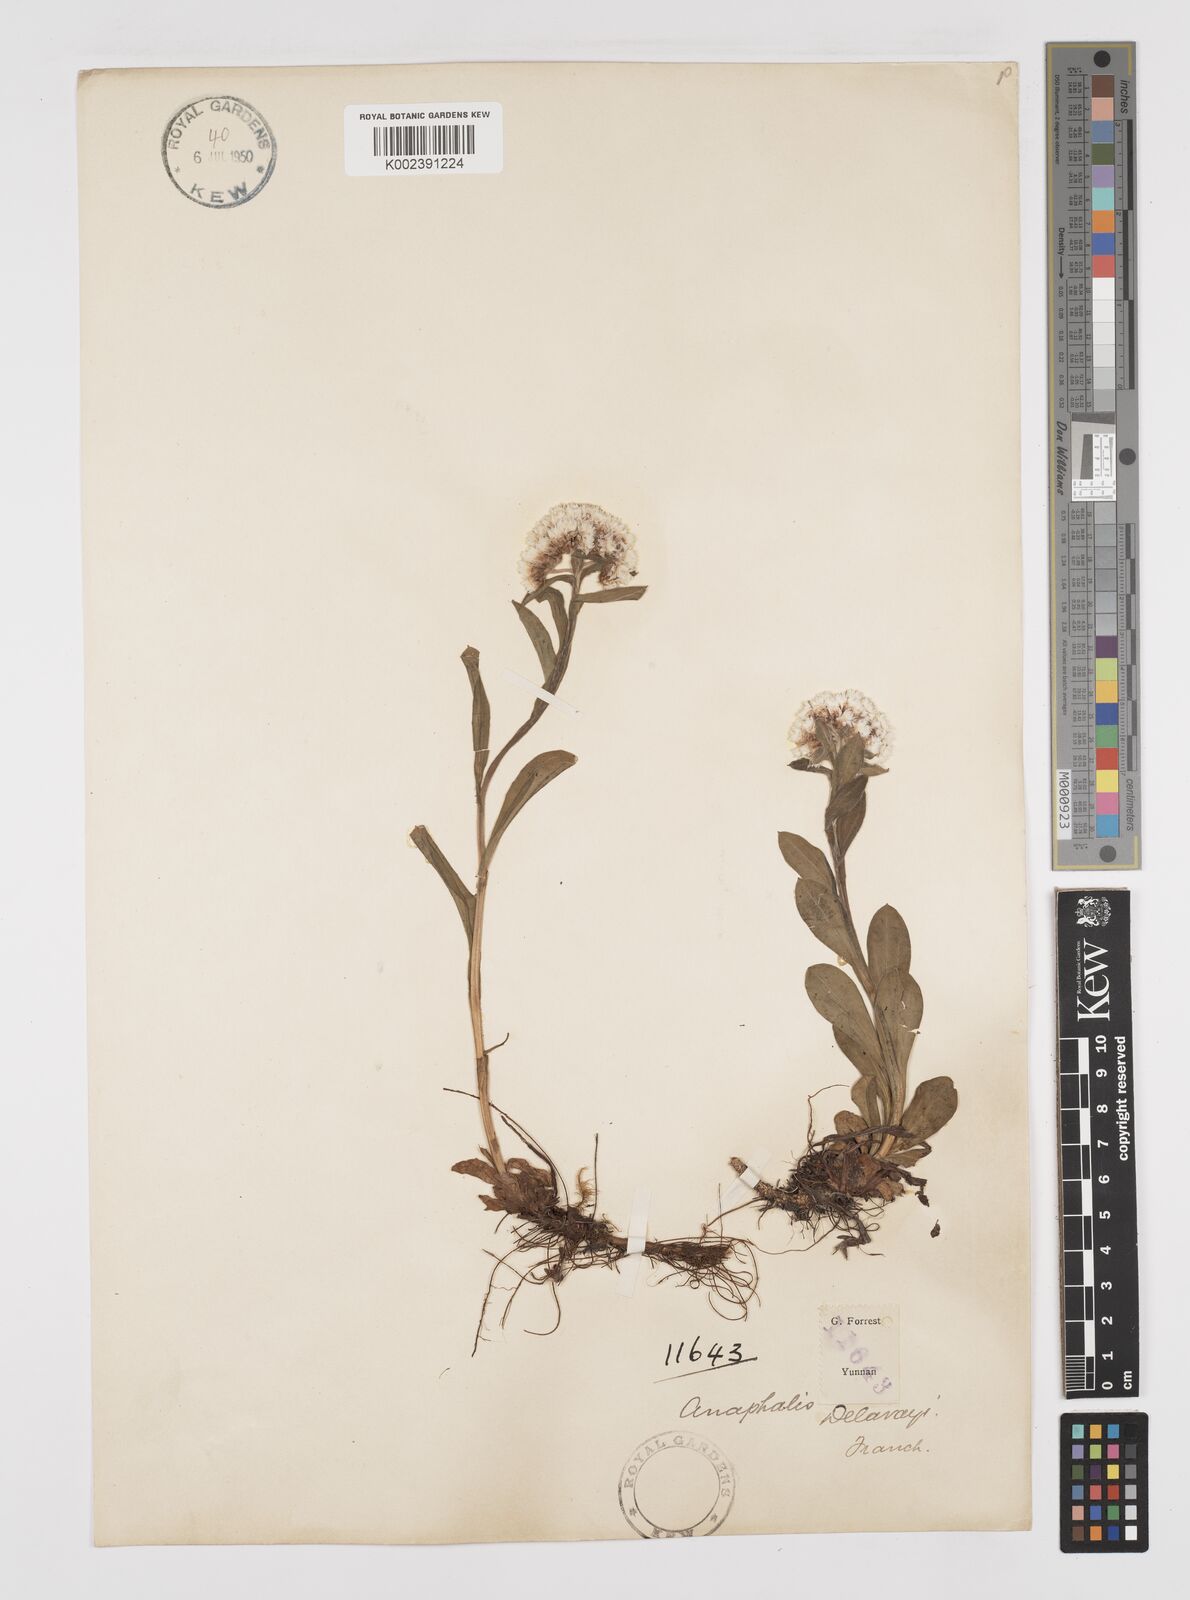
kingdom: Plantae
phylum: Tracheophyta
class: Magnoliopsida
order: Asterales
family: Asteraceae
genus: Anaphalis
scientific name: Anaphalis delavayi
